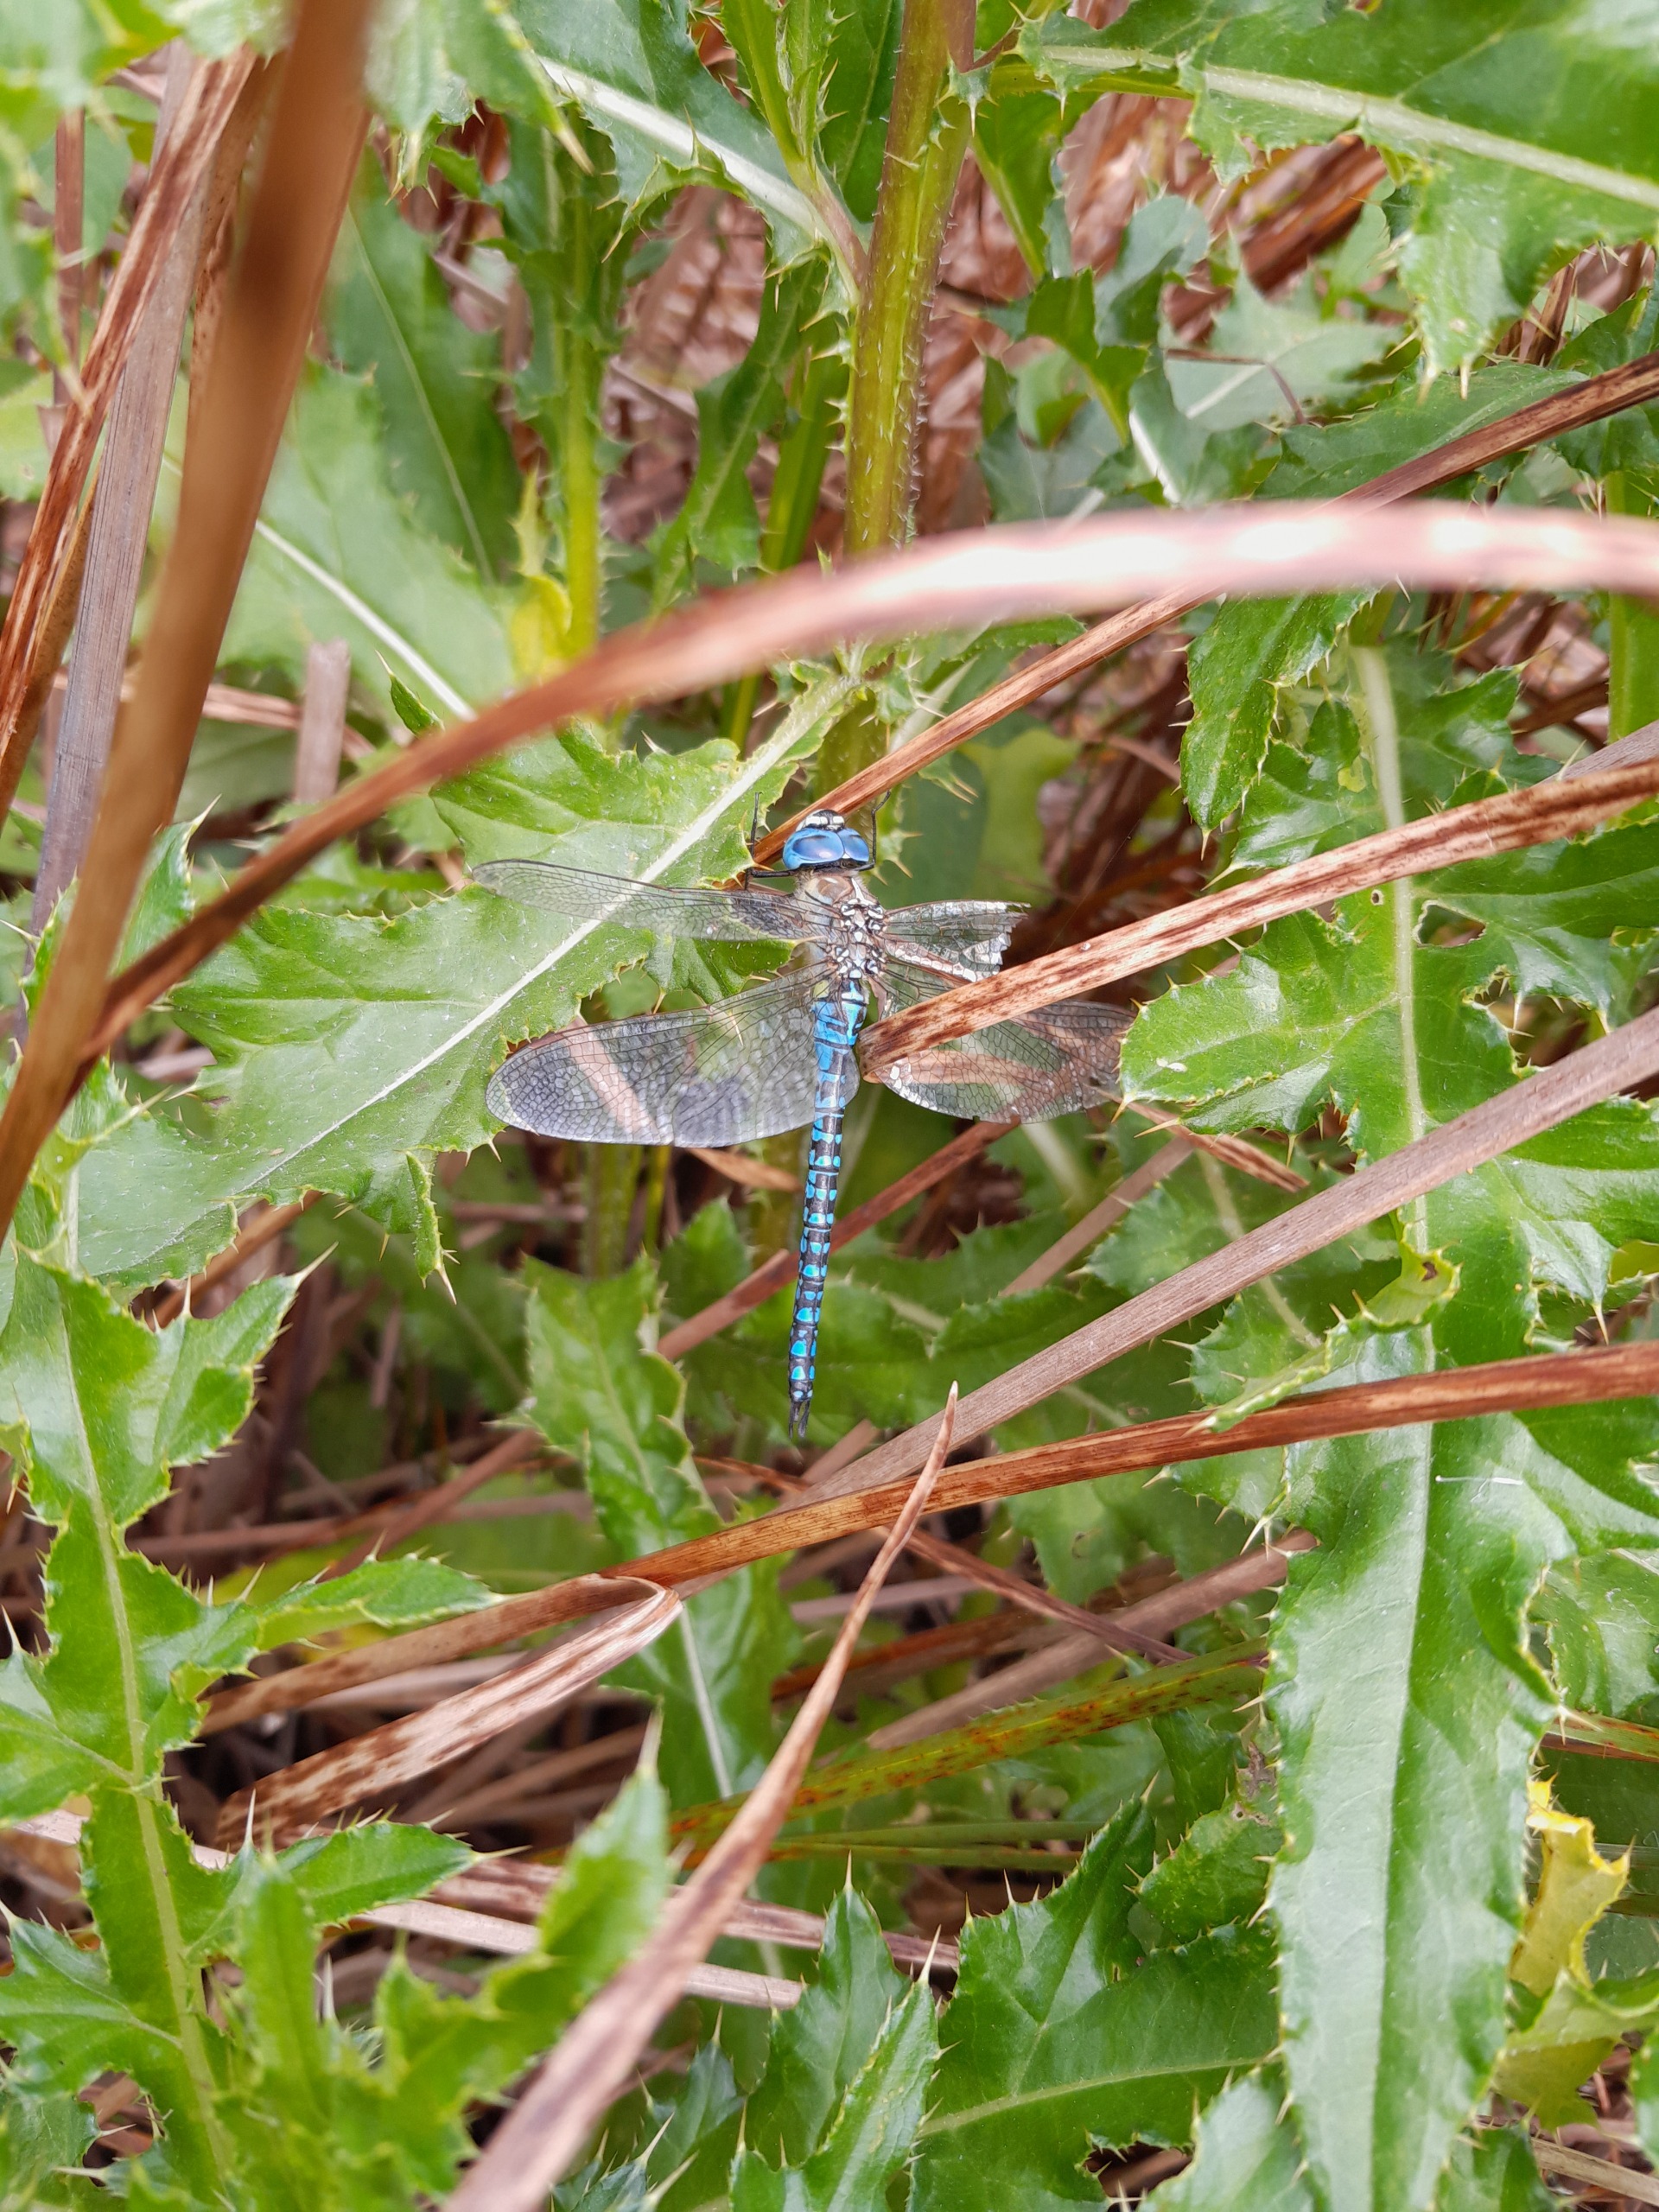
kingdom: Animalia
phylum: Arthropoda
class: Insecta
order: Odonata
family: Aeshnidae
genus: Aeshna
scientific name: Aeshna affinis
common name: Sydlig mosaikguldsmed
